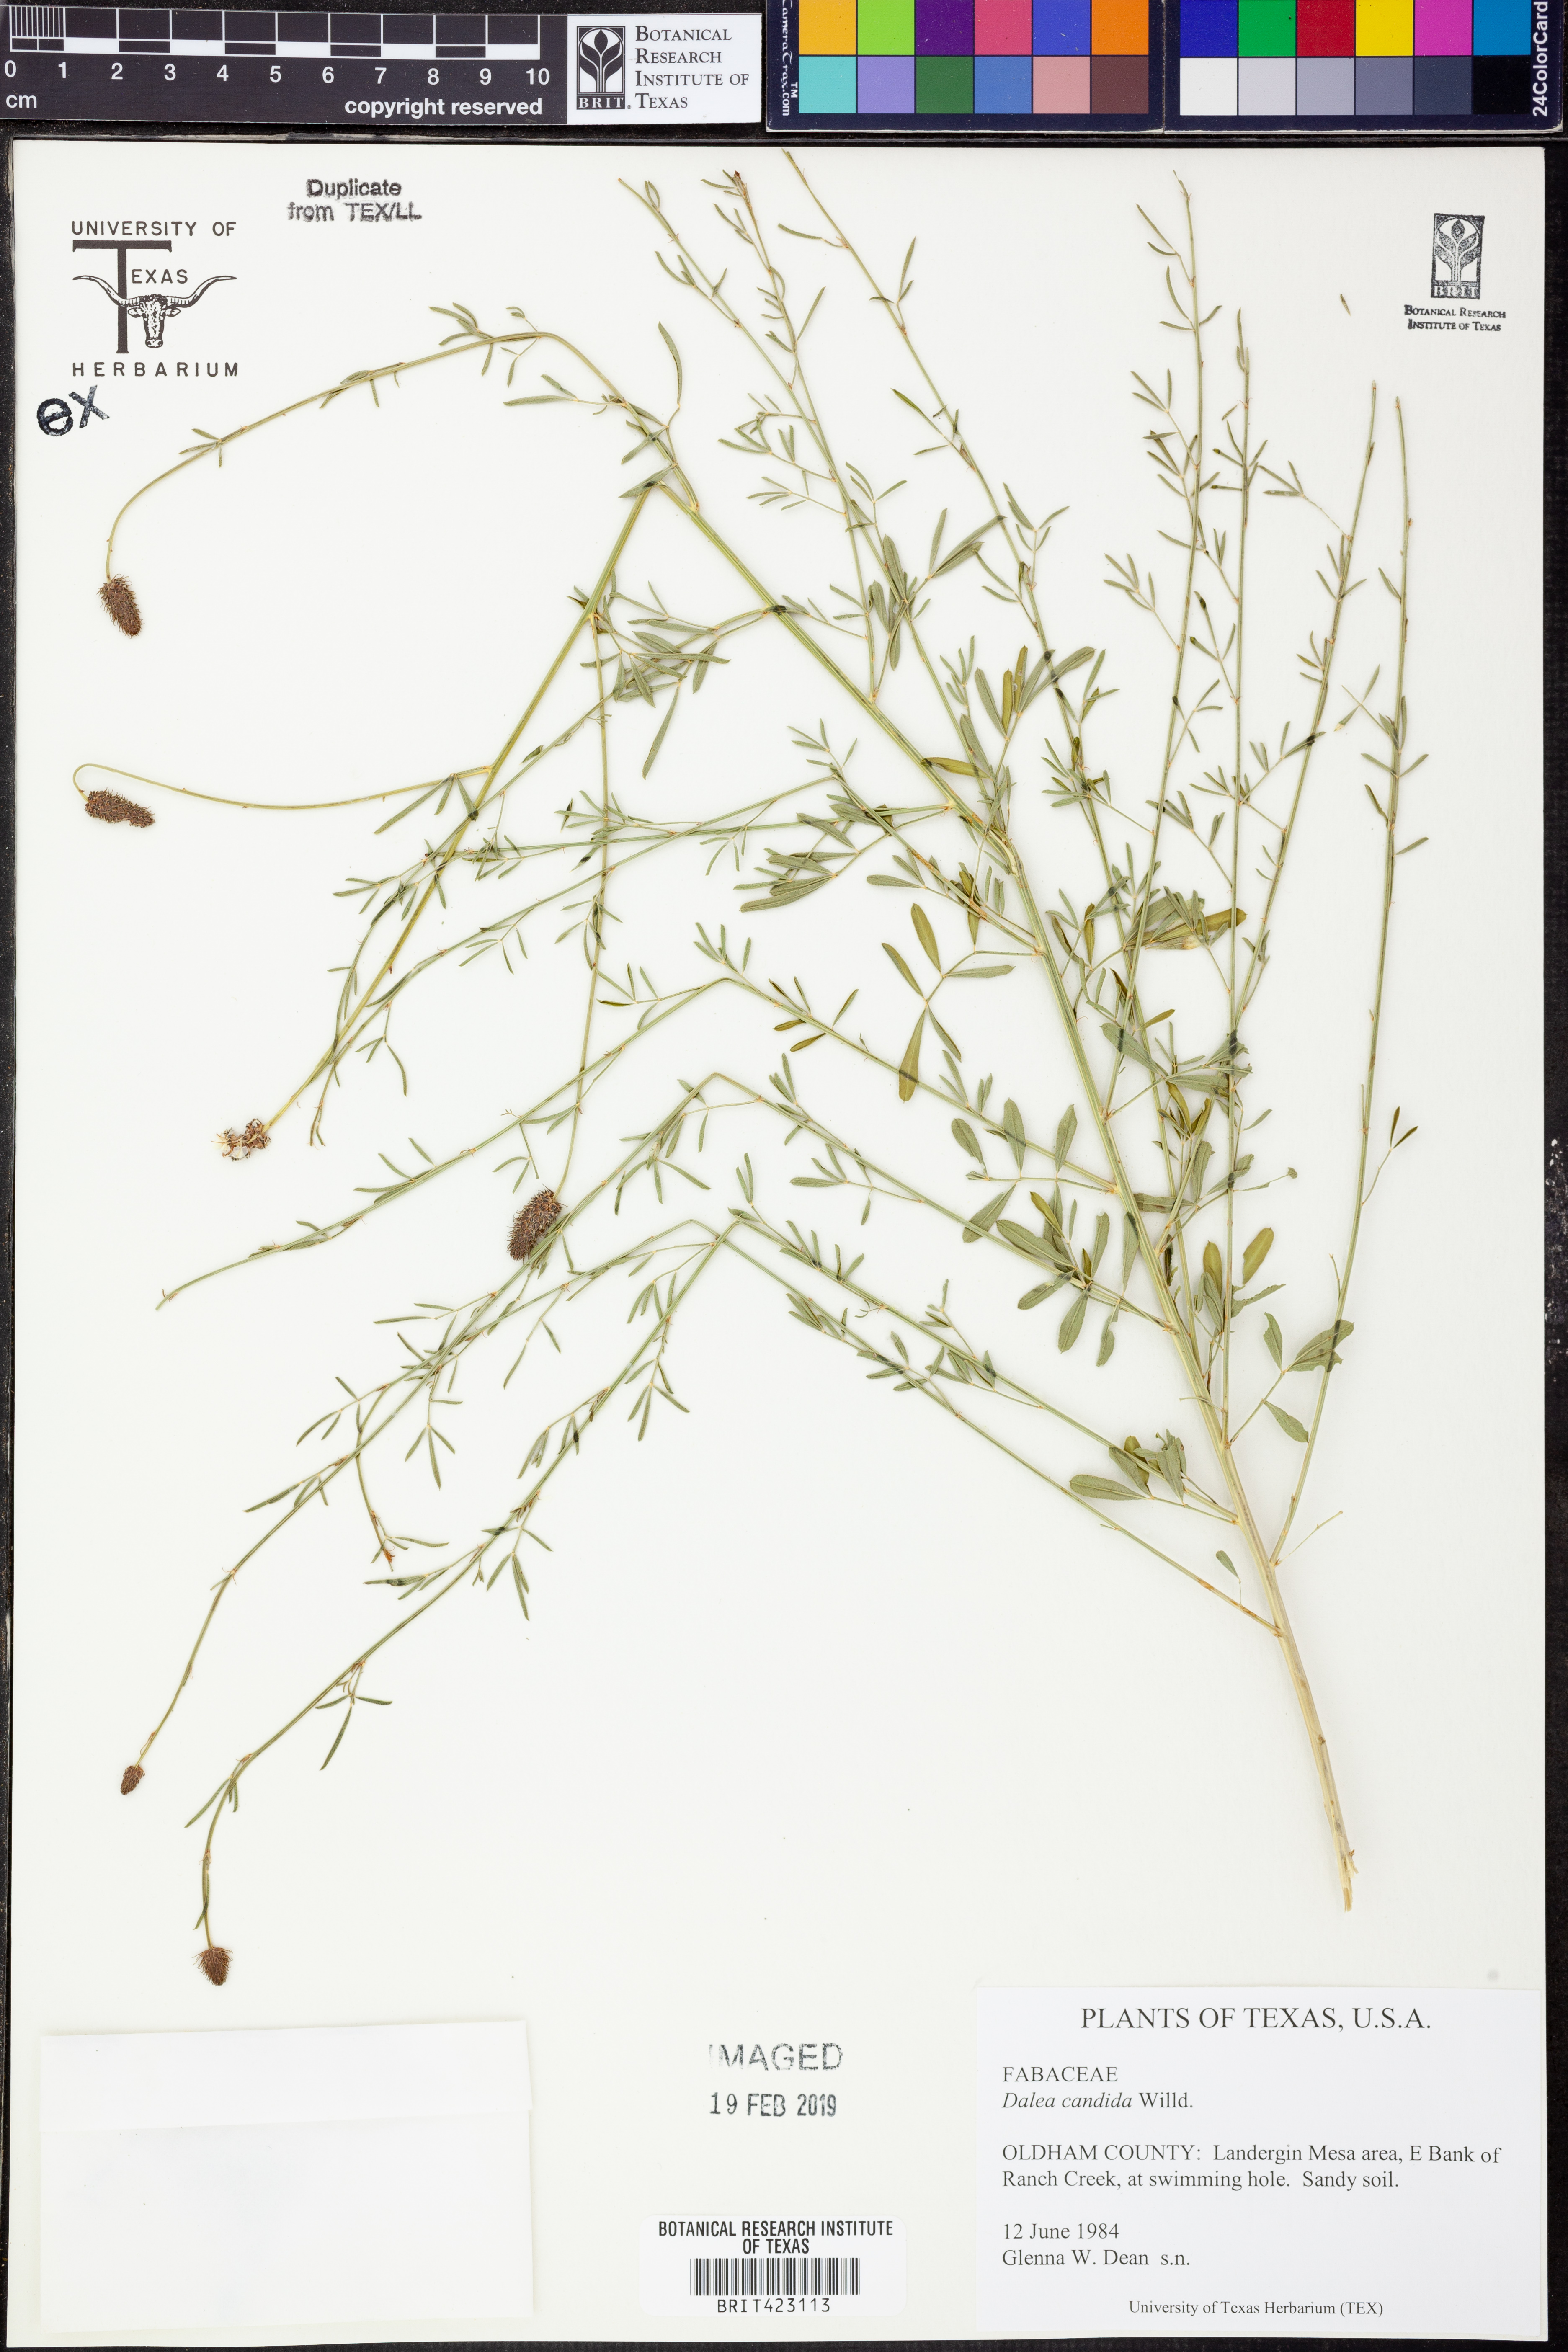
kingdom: Plantae
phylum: Tracheophyta
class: Magnoliopsida
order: Fabales
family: Fabaceae
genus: Dalea
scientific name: Dalea candida
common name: White prairie-clover
